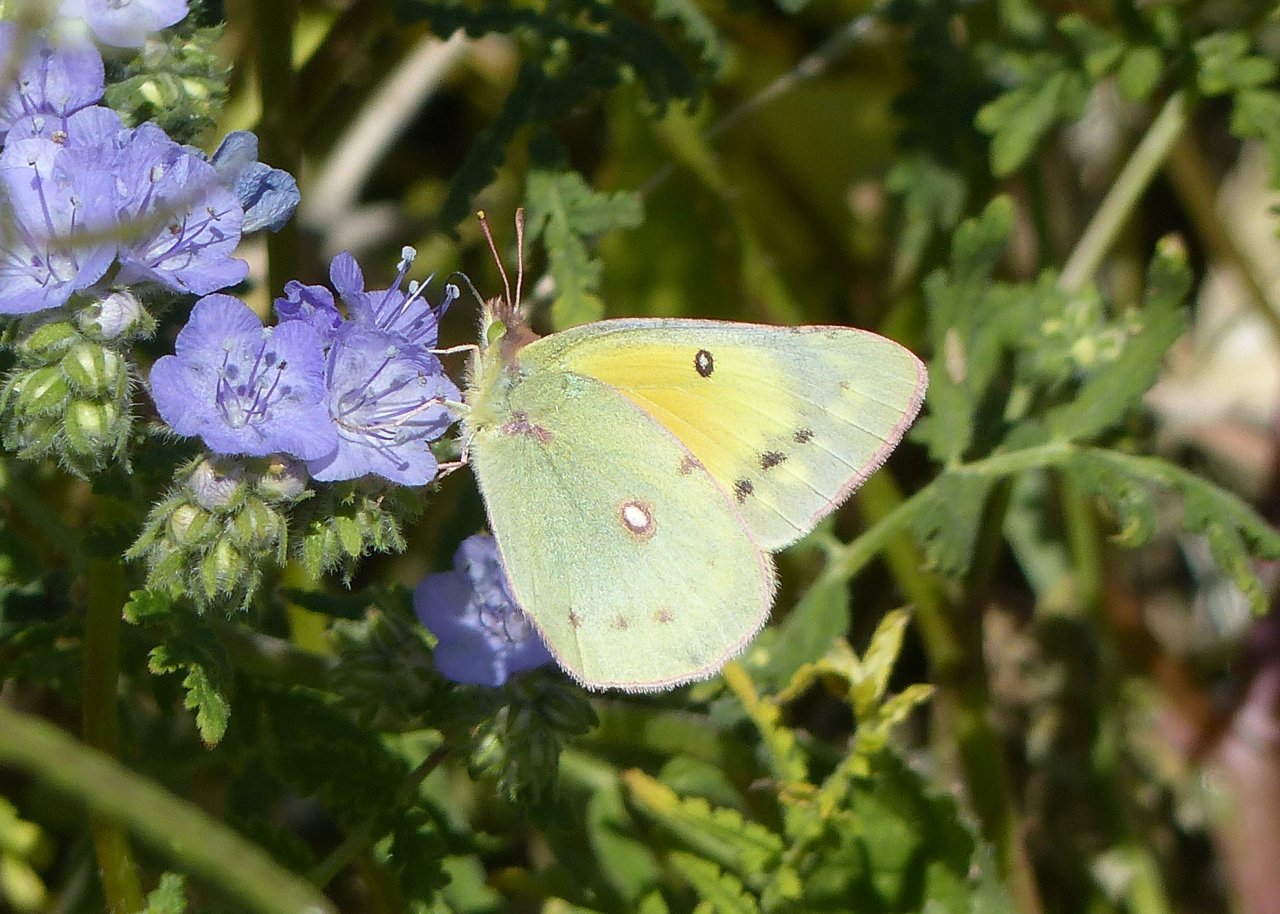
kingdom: Animalia
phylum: Arthropoda
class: Insecta
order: Lepidoptera
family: Pieridae
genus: Colias
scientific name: Colias eurytheme
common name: Orange Sulphur
